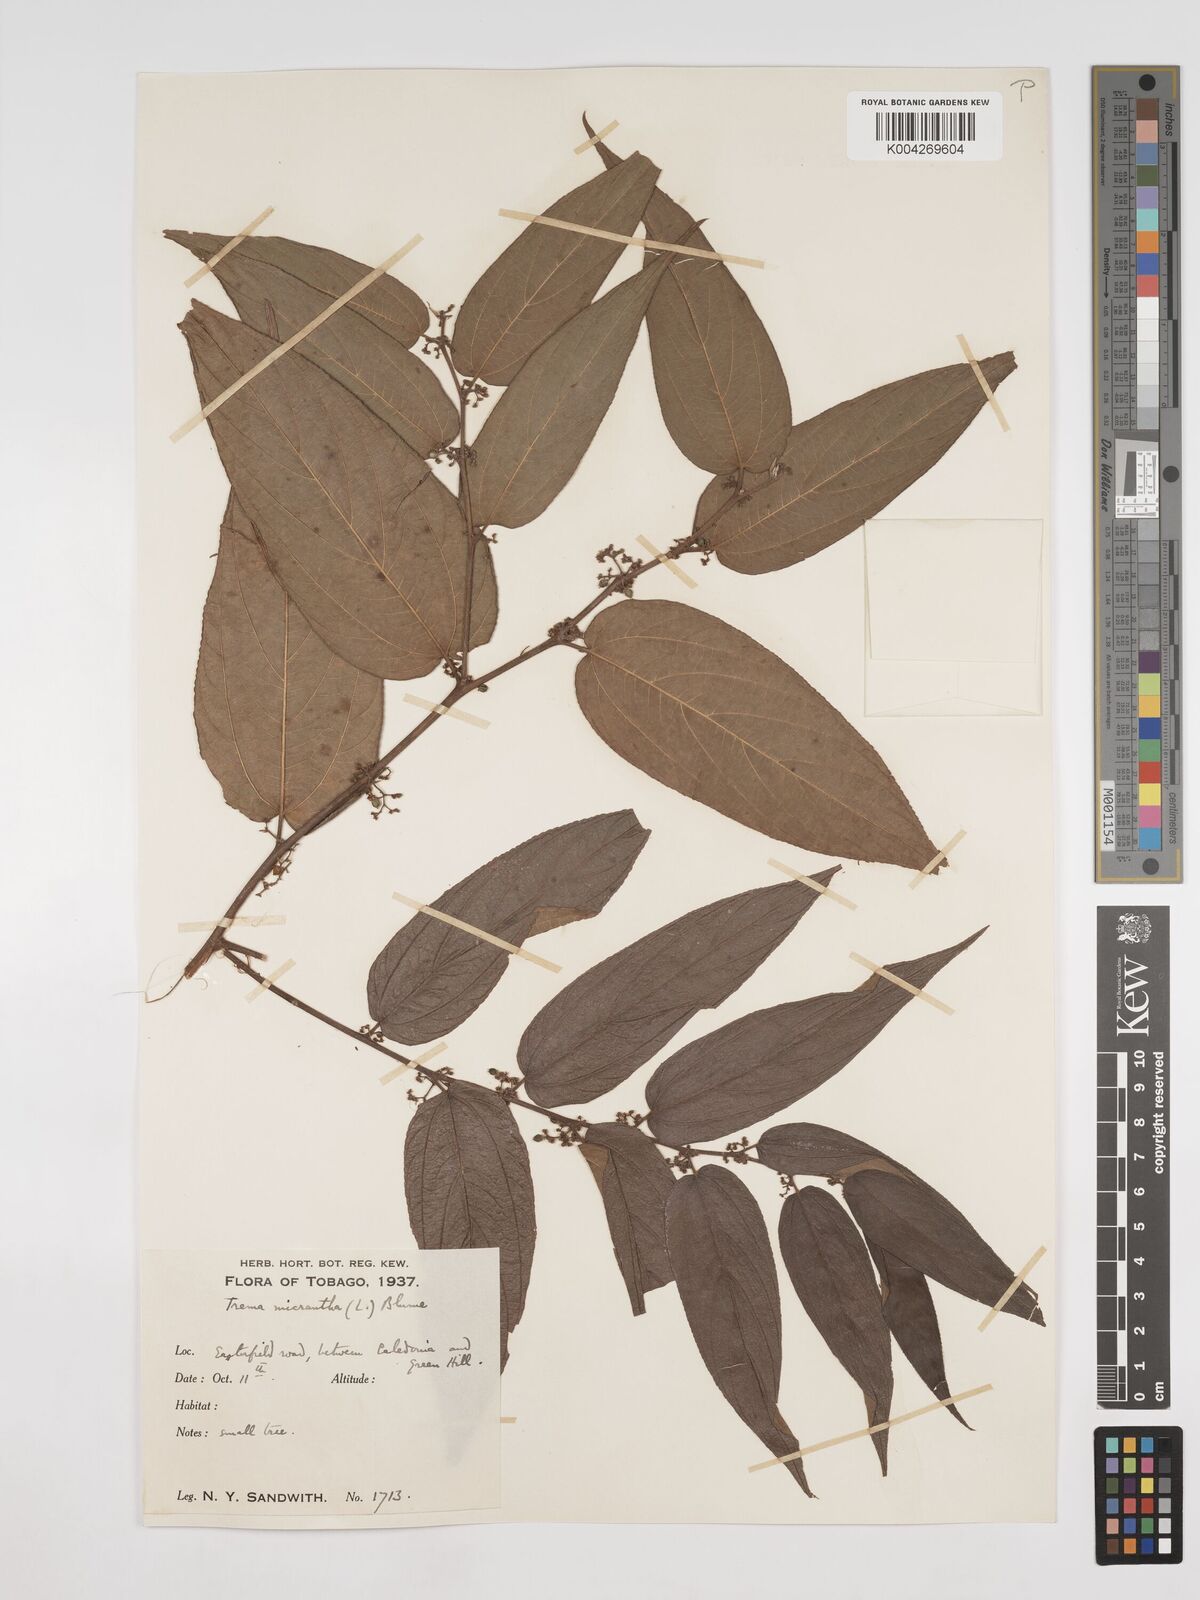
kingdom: Plantae
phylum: Tracheophyta
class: Magnoliopsida
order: Rosales
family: Cannabaceae
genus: Trema
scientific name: Trema micranthum
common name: Jamaican nettletree
